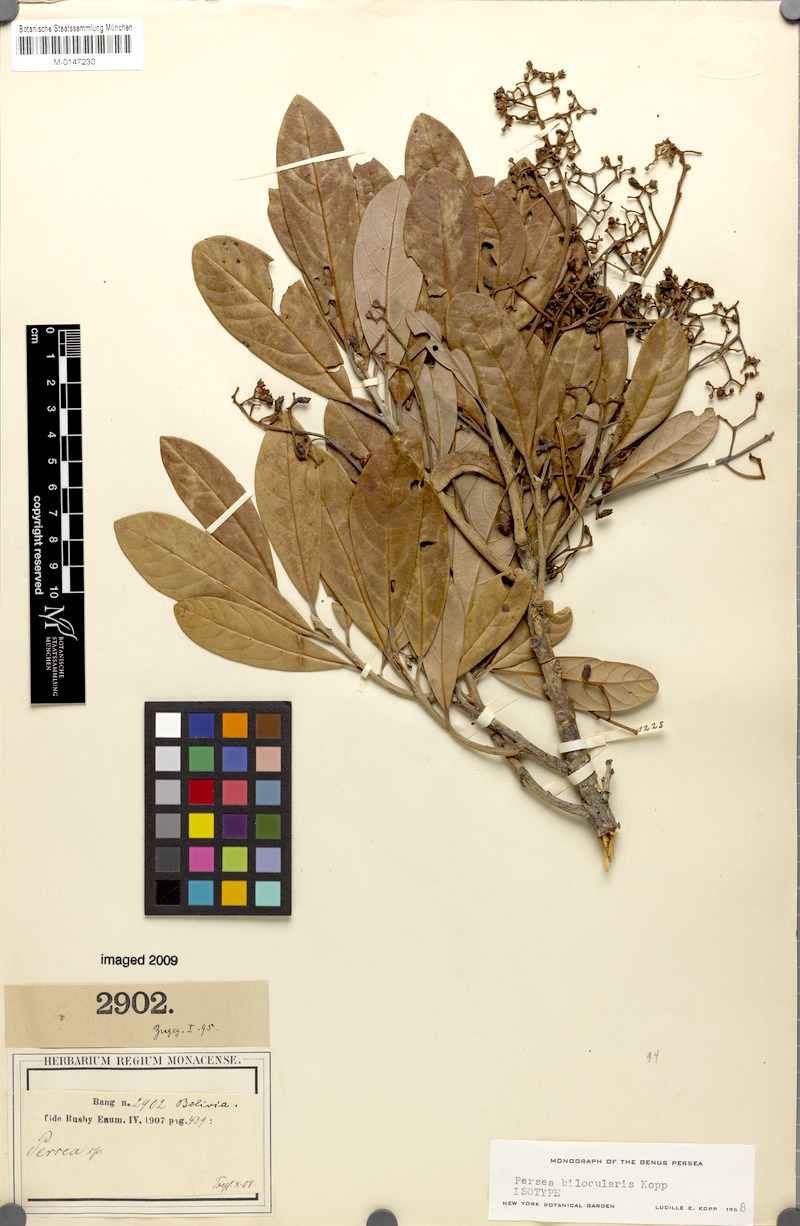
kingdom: Plantae
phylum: Tracheophyta
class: Magnoliopsida
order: Laurales
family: Lauraceae
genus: Persea
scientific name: Persea bilocularis
